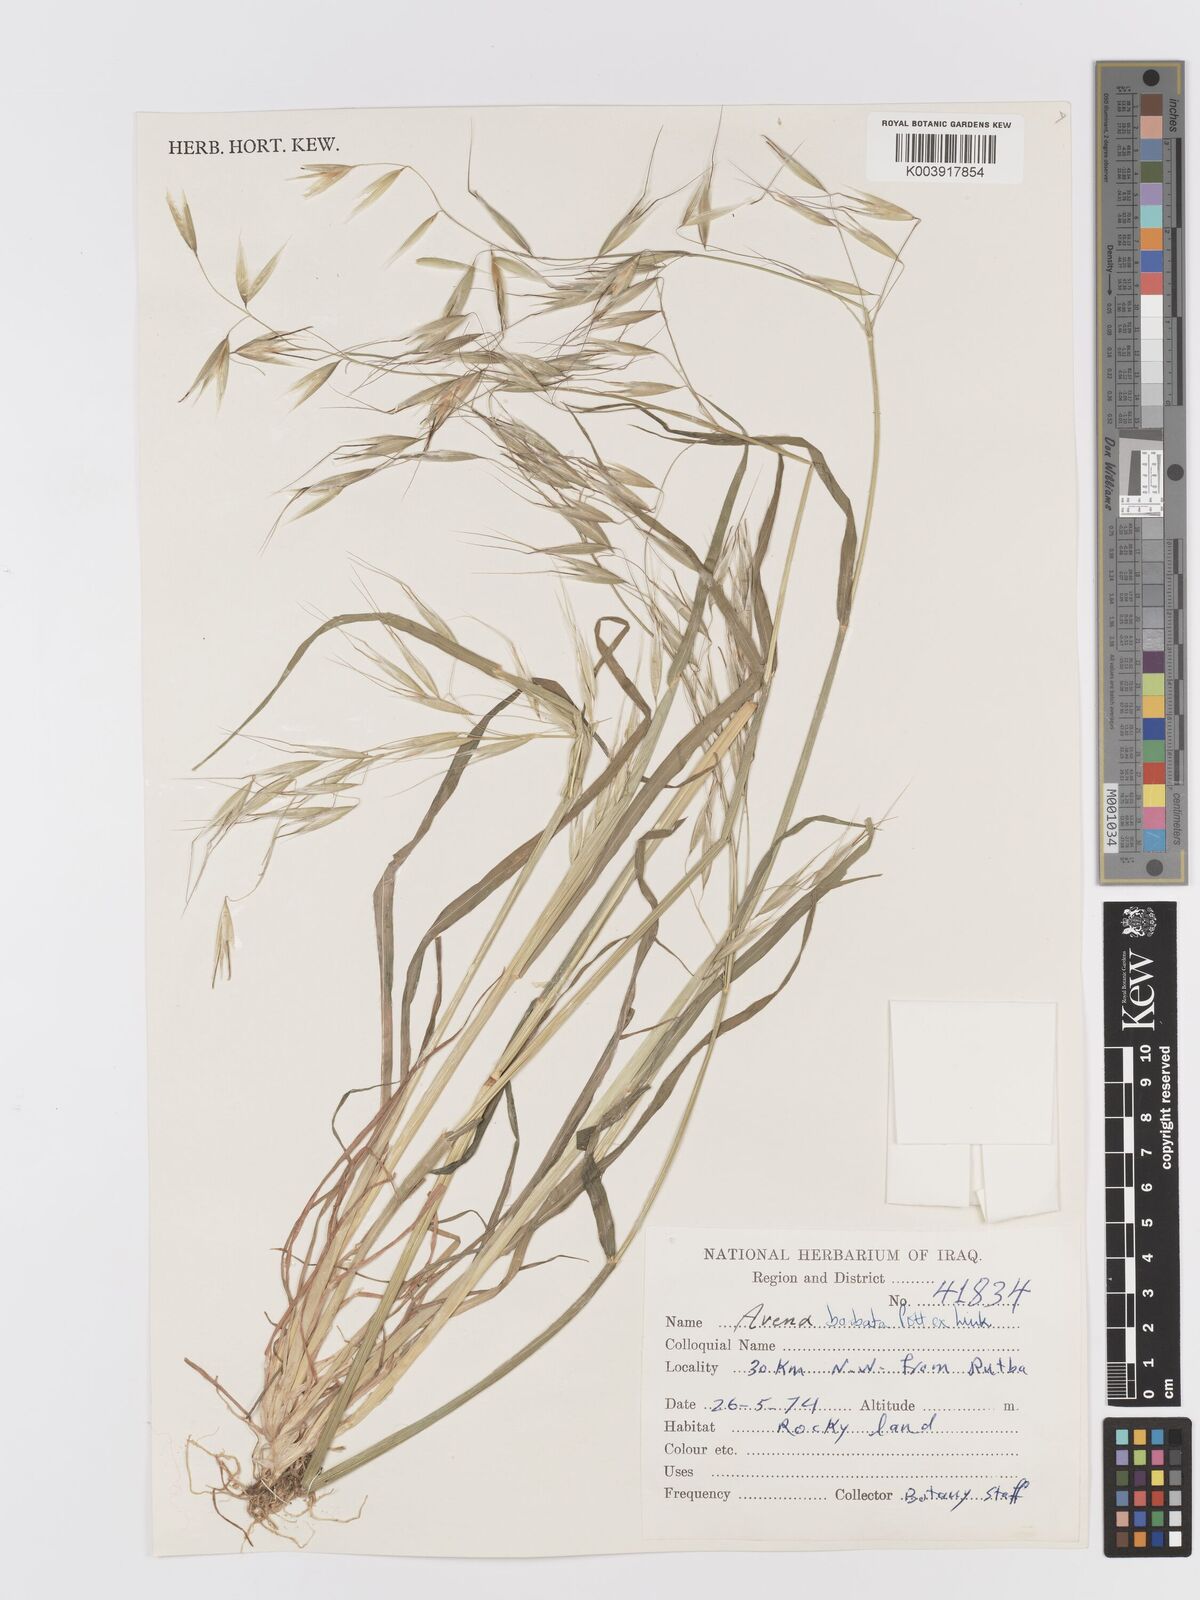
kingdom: Plantae
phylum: Tracheophyta
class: Liliopsida
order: Poales
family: Poaceae
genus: Avena
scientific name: Avena
